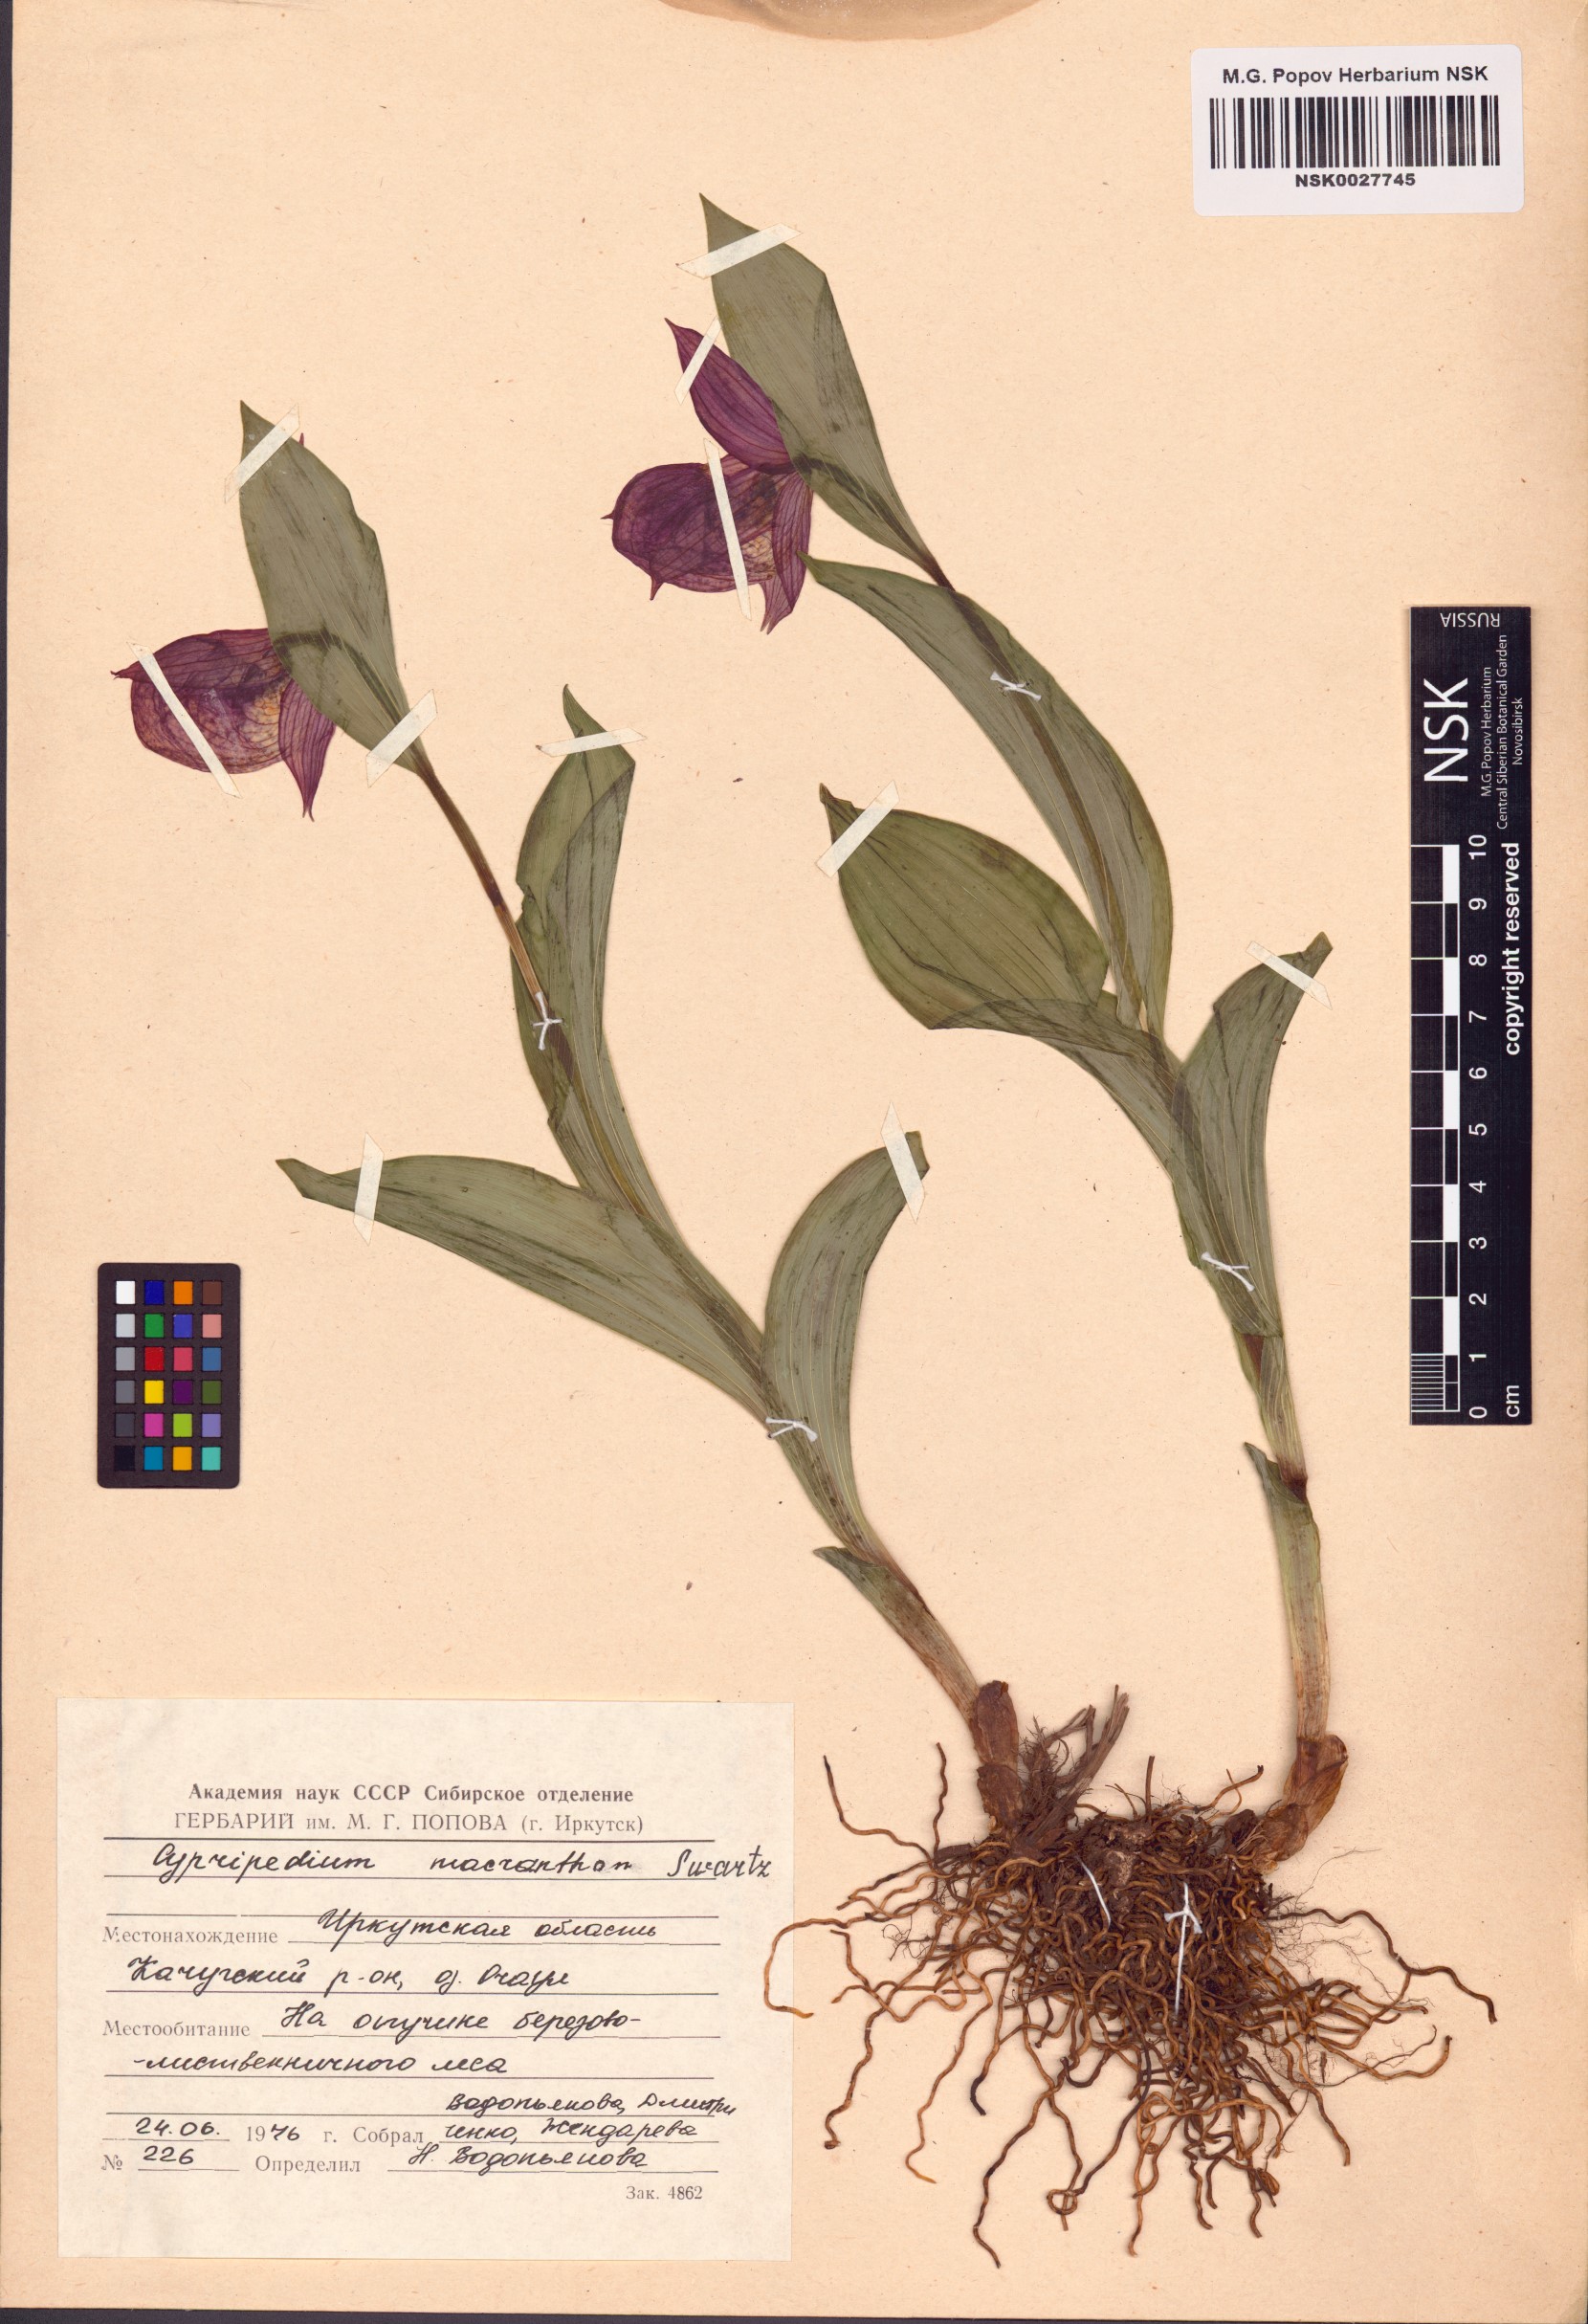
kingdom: Plantae
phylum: Tracheophyta
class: Liliopsida
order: Asparagales
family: Orchidaceae
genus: Cypripedium
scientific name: Cypripedium macranthos
